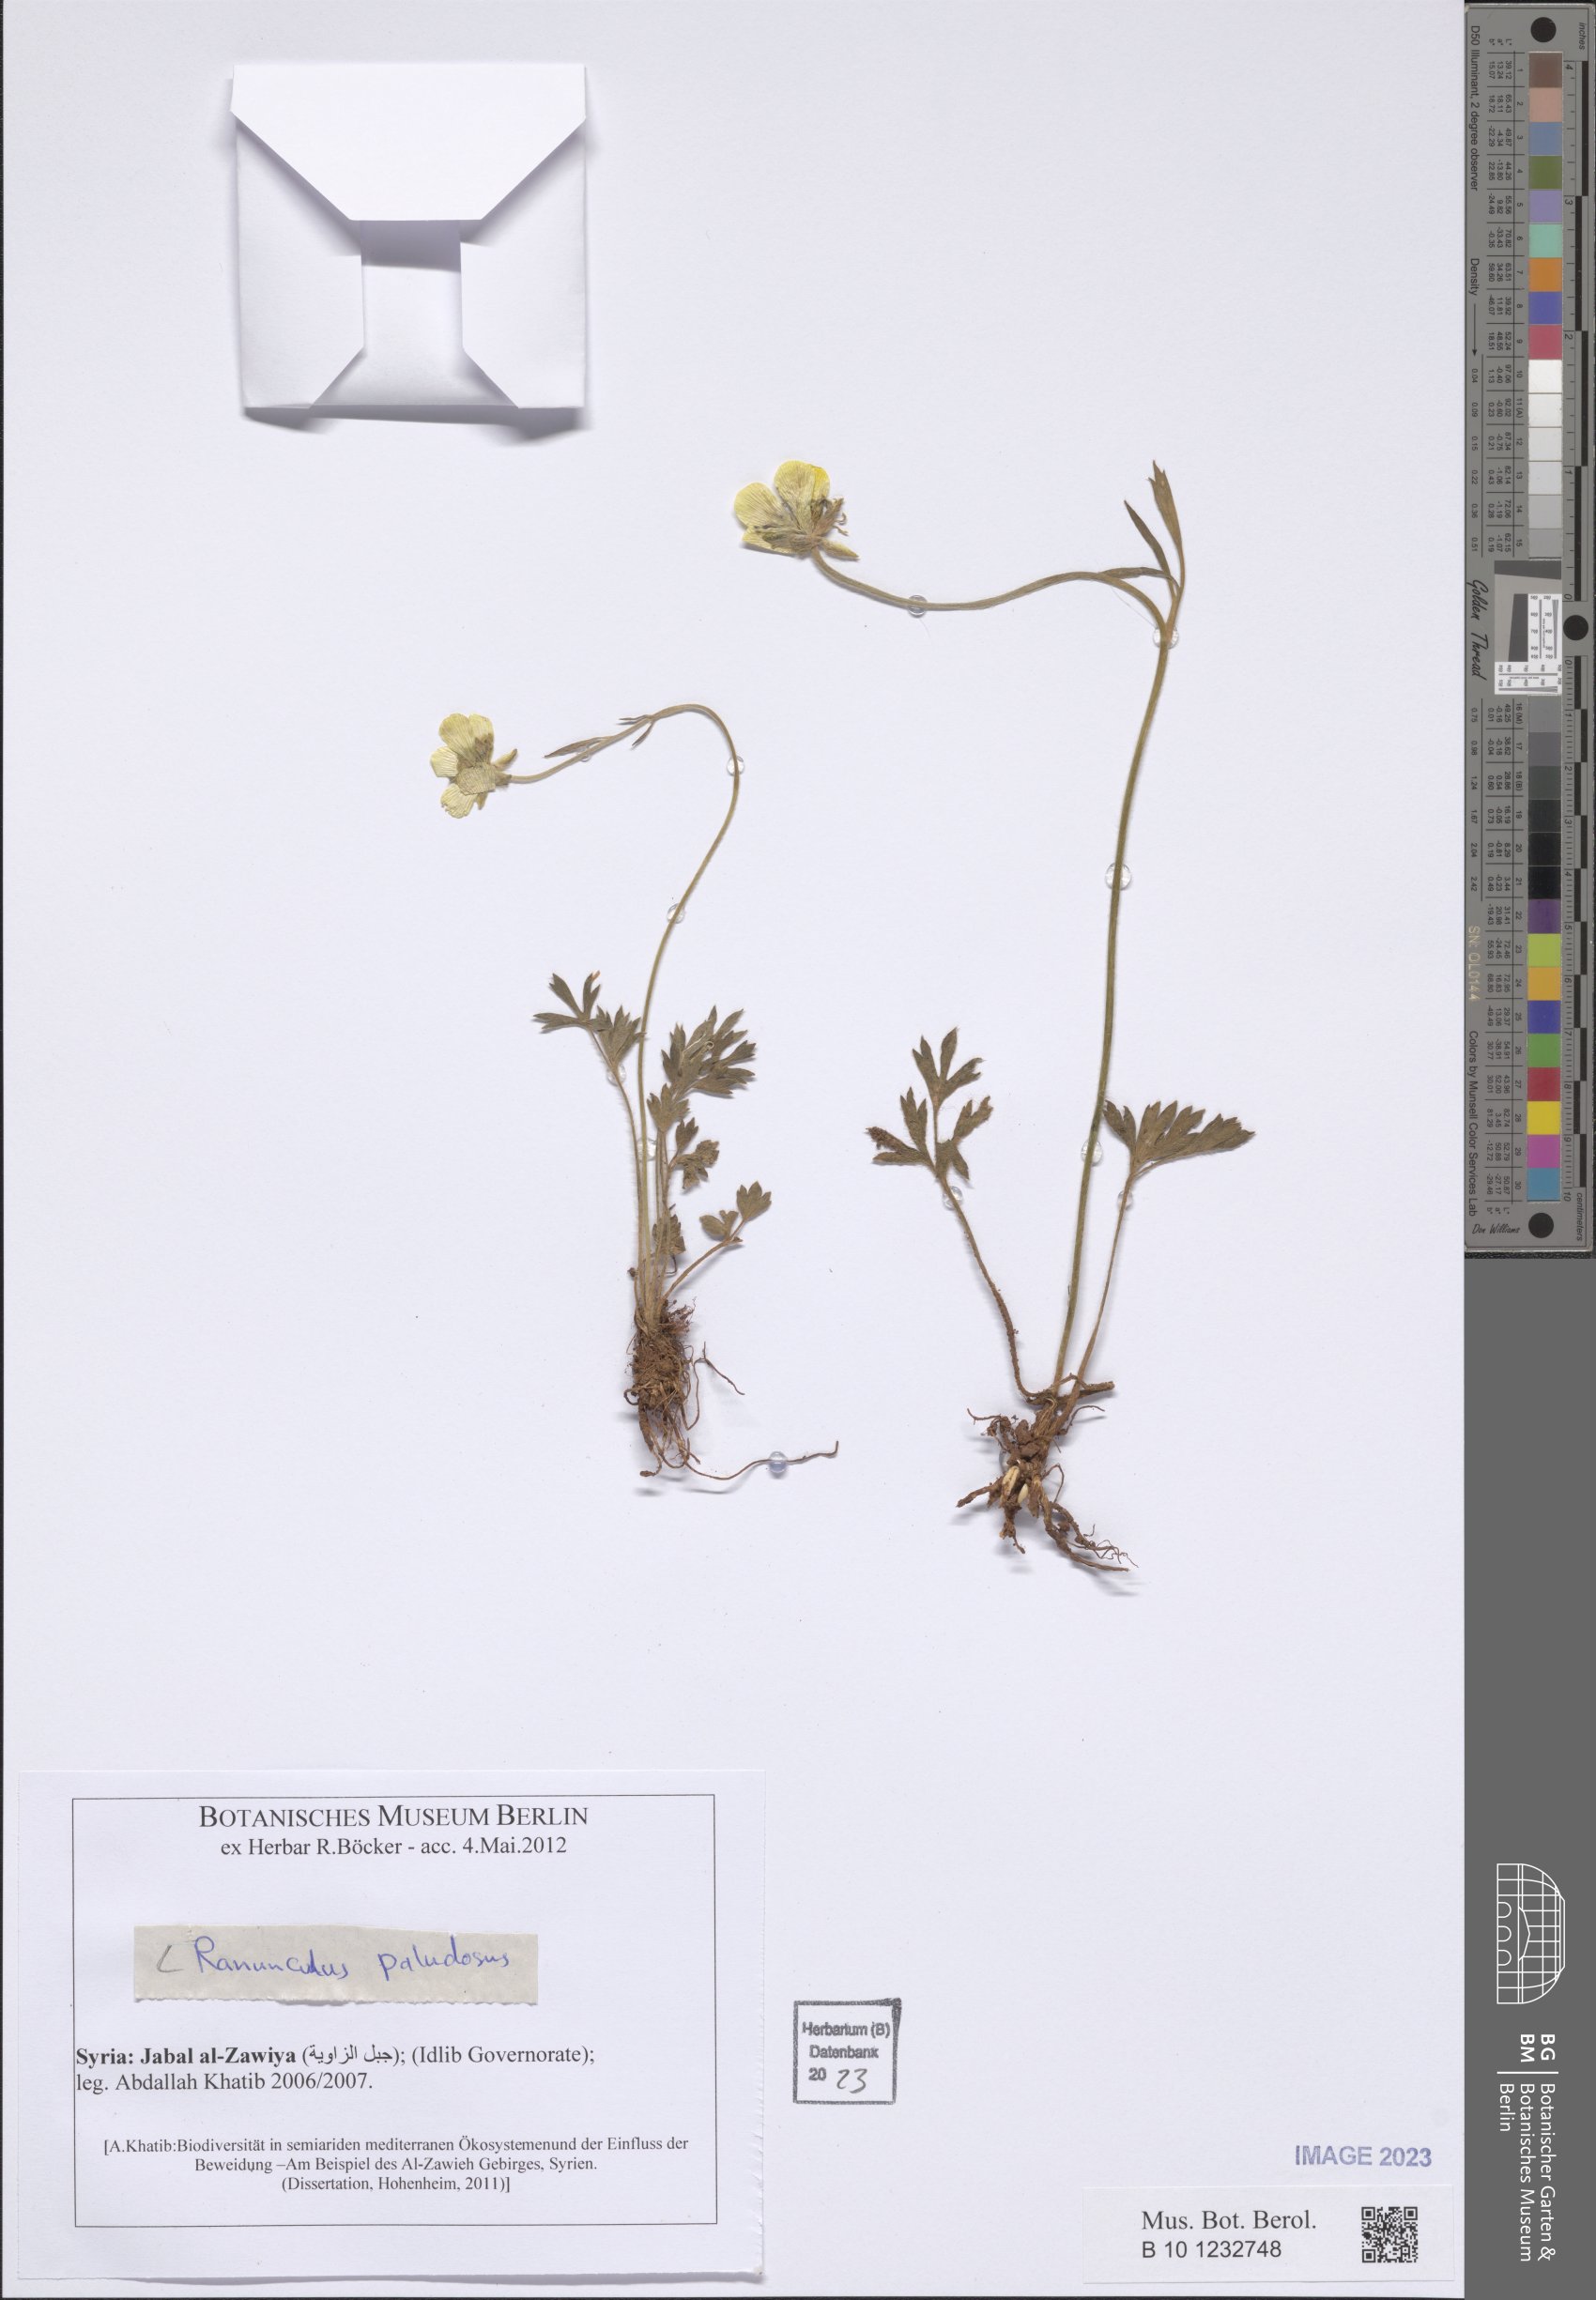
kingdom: Plantae
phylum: Tracheophyta
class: Magnoliopsida
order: Ranunculales
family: Ranunculaceae
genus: Ranunculus
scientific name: Ranunculus paludosus
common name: Jersey buttercup
